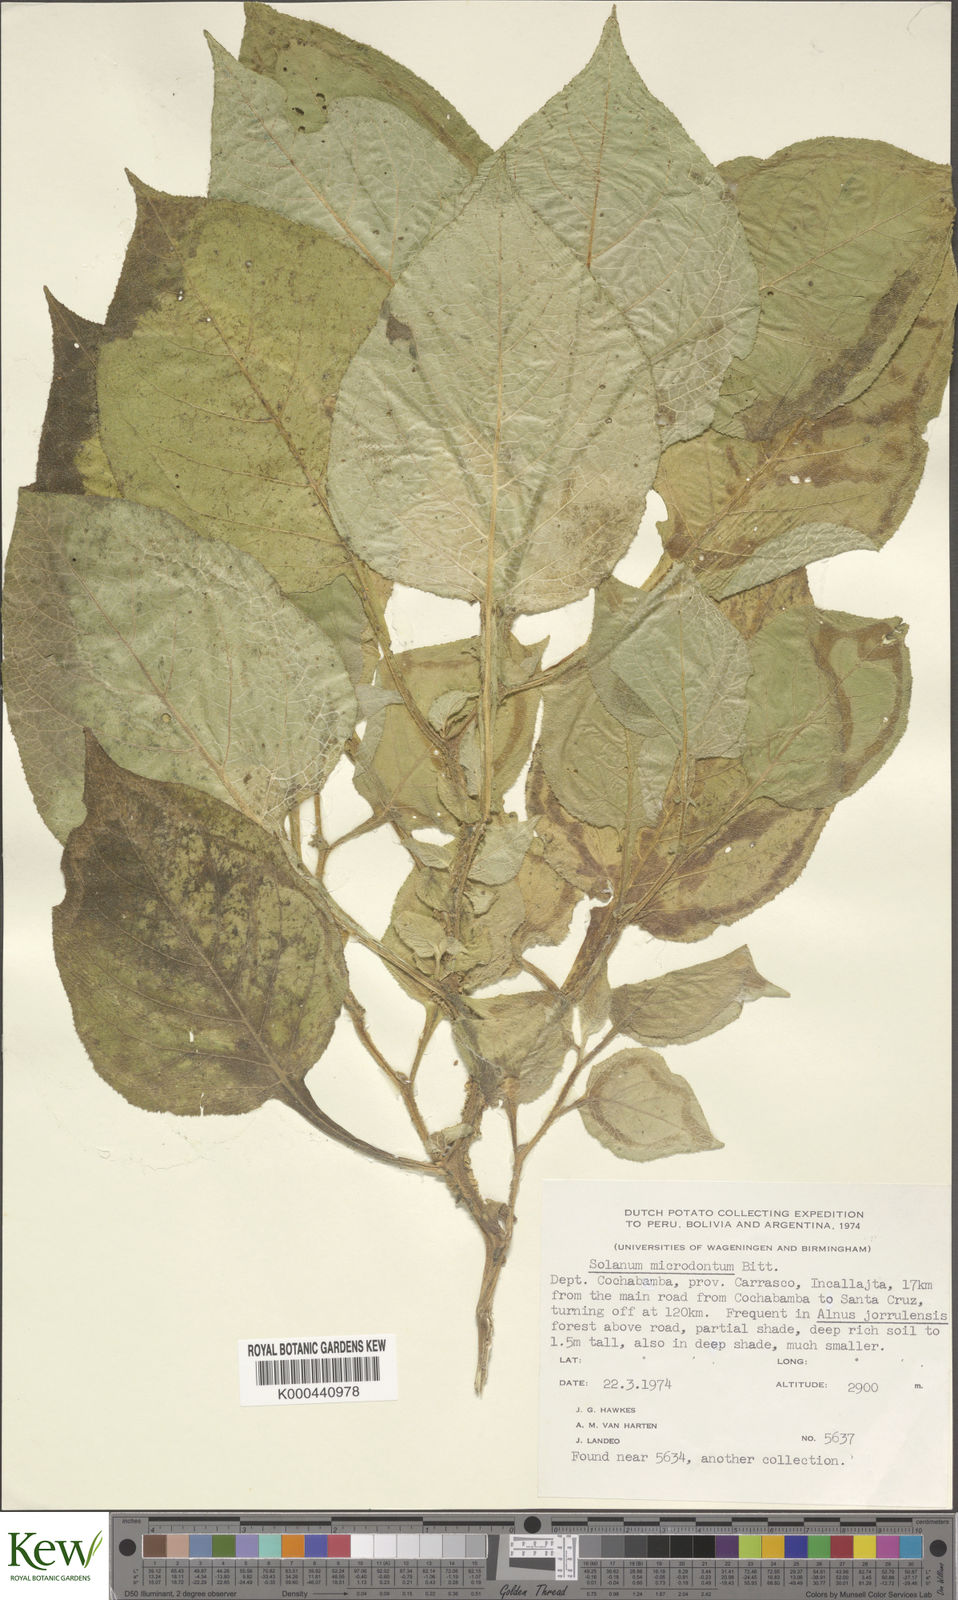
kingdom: Plantae
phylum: Tracheophyta
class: Magnoliopsida
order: Solanales
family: Solanaceae
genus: Solanum
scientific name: Solanum microdontum
